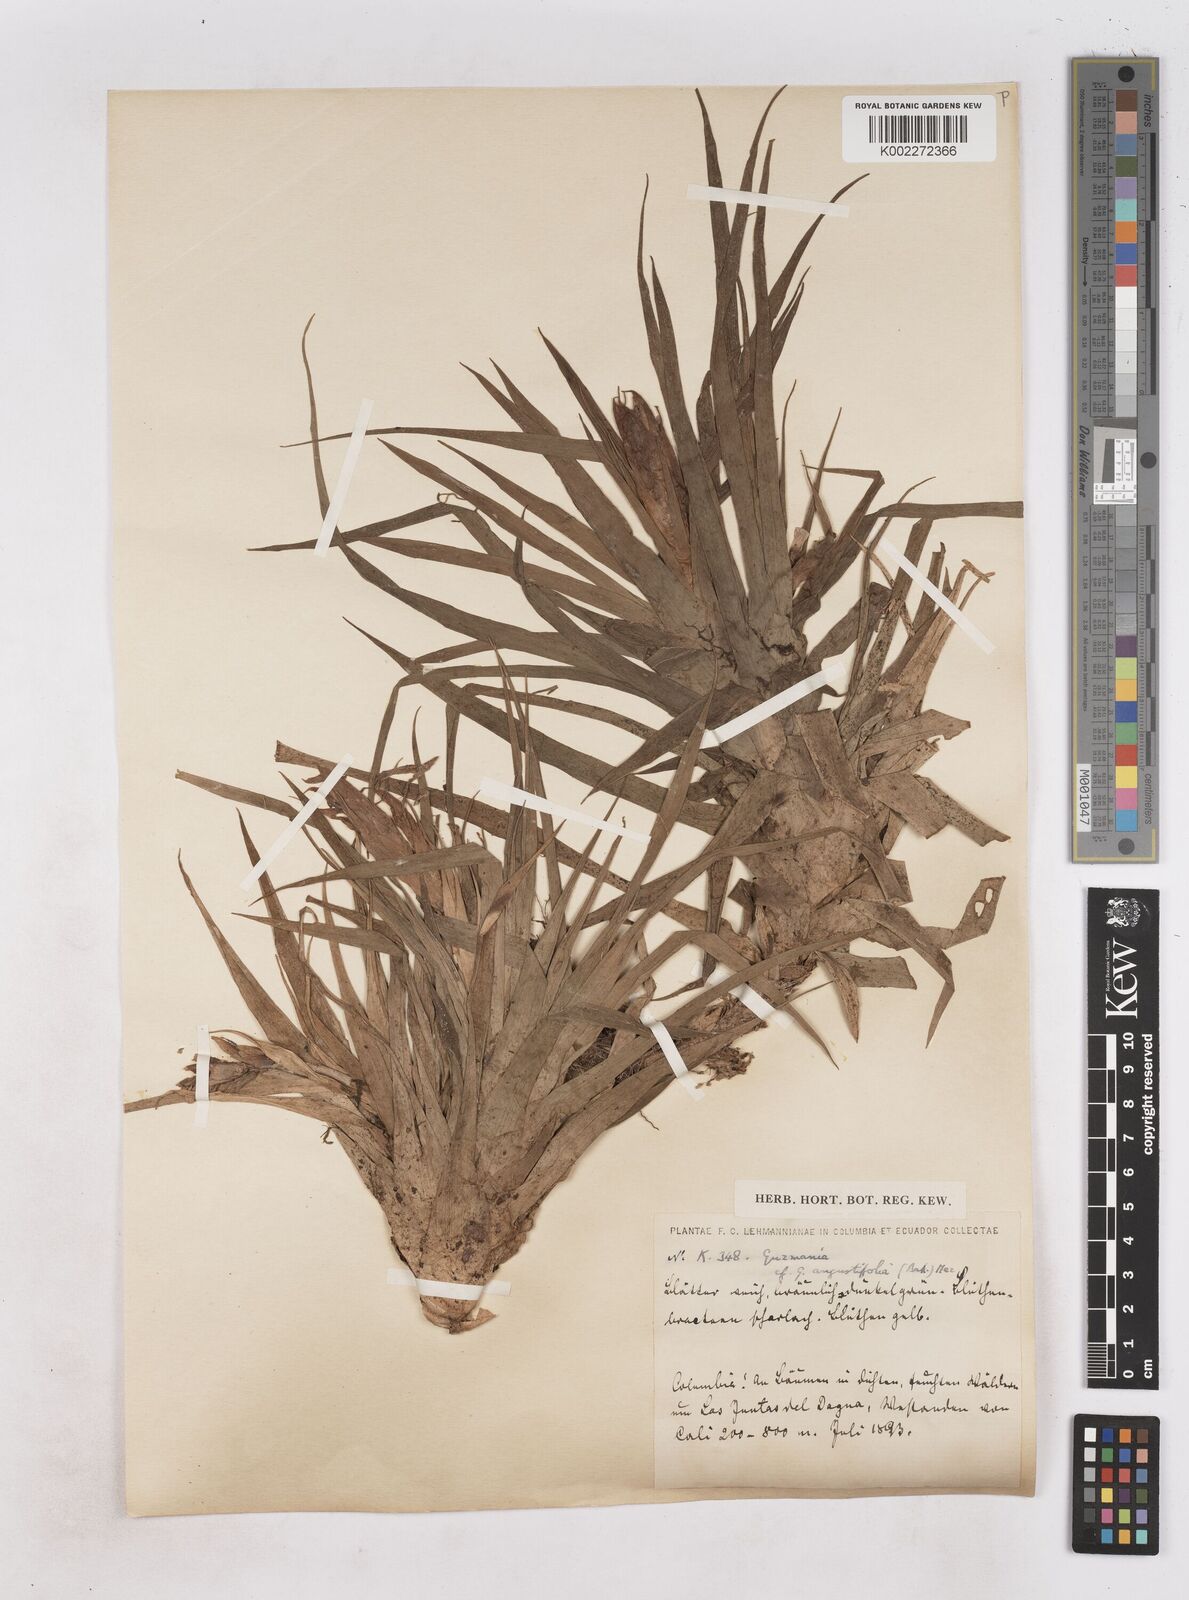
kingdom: Plantae
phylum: Tracheophyta
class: Liliopsida
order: Poales
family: Bromeliaceae
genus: Guzmania
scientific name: Guzmania angustifolia
